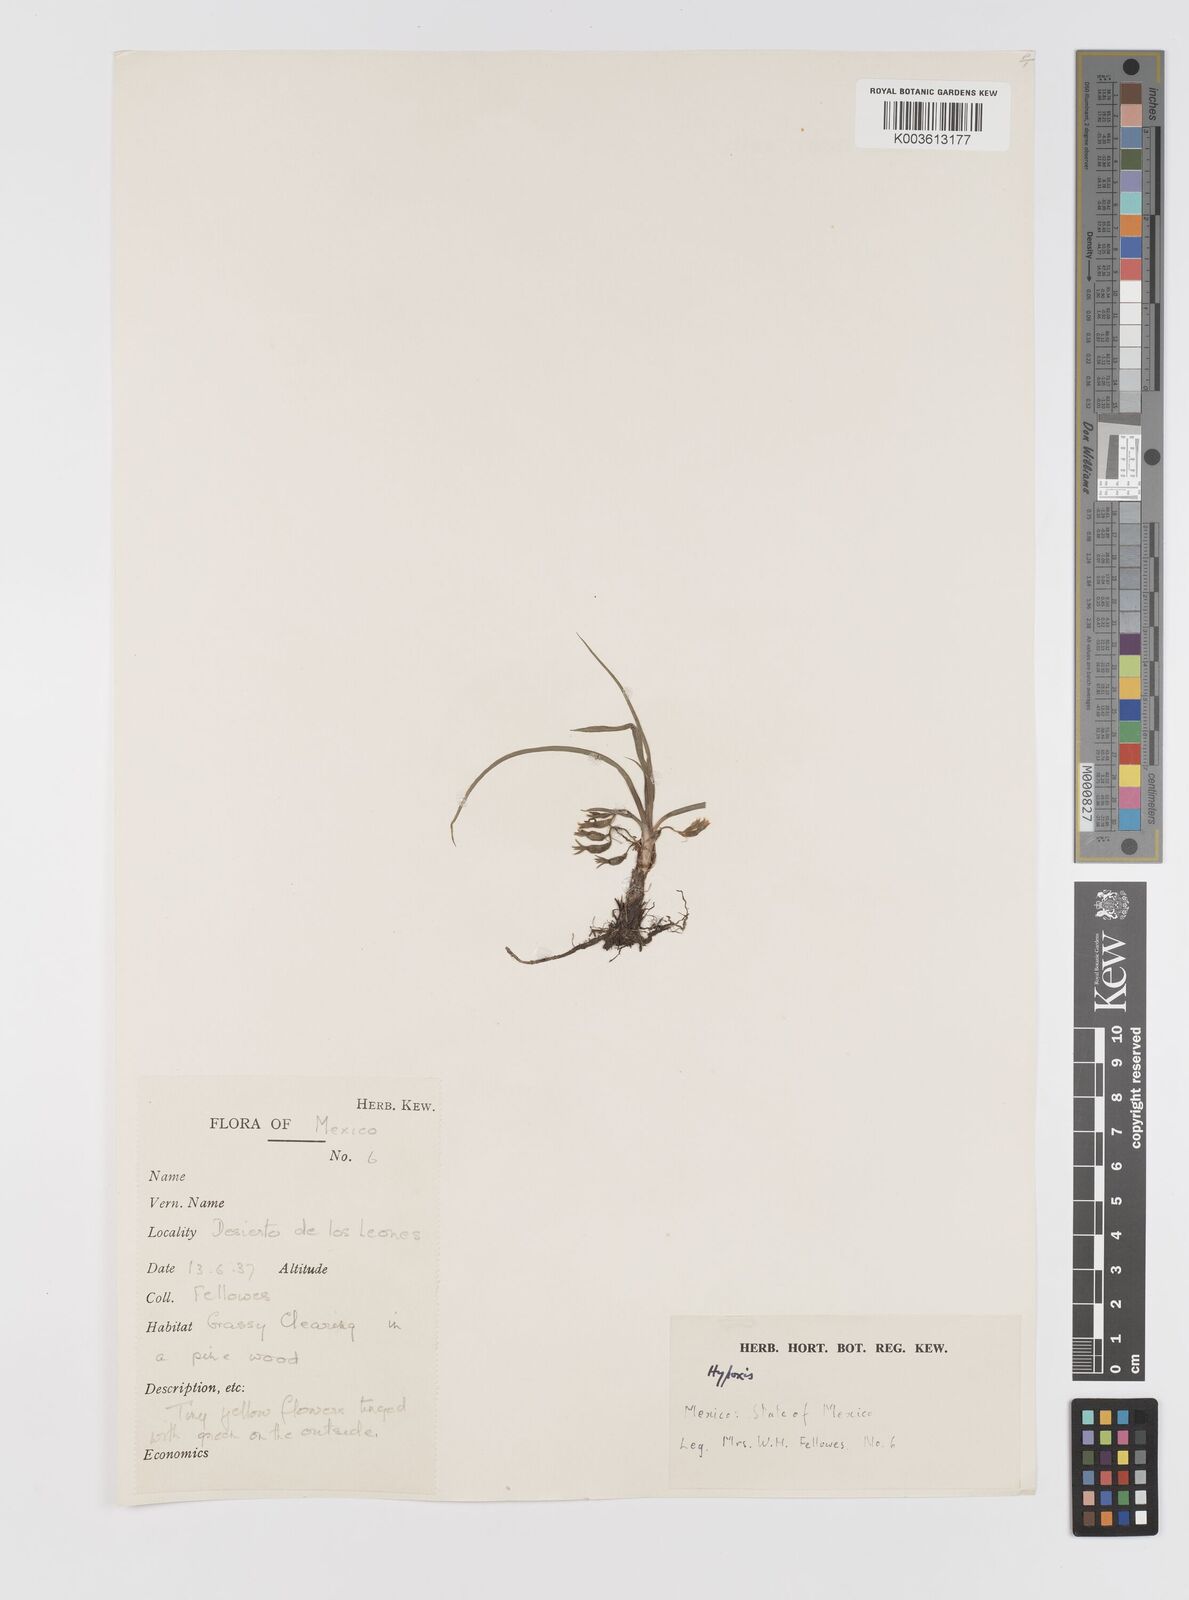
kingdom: Plantae
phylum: Tracheophyta
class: Liliopsida
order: Asparagales
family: Hypoxidaceae
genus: Hypoxis
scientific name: Hypoxis
